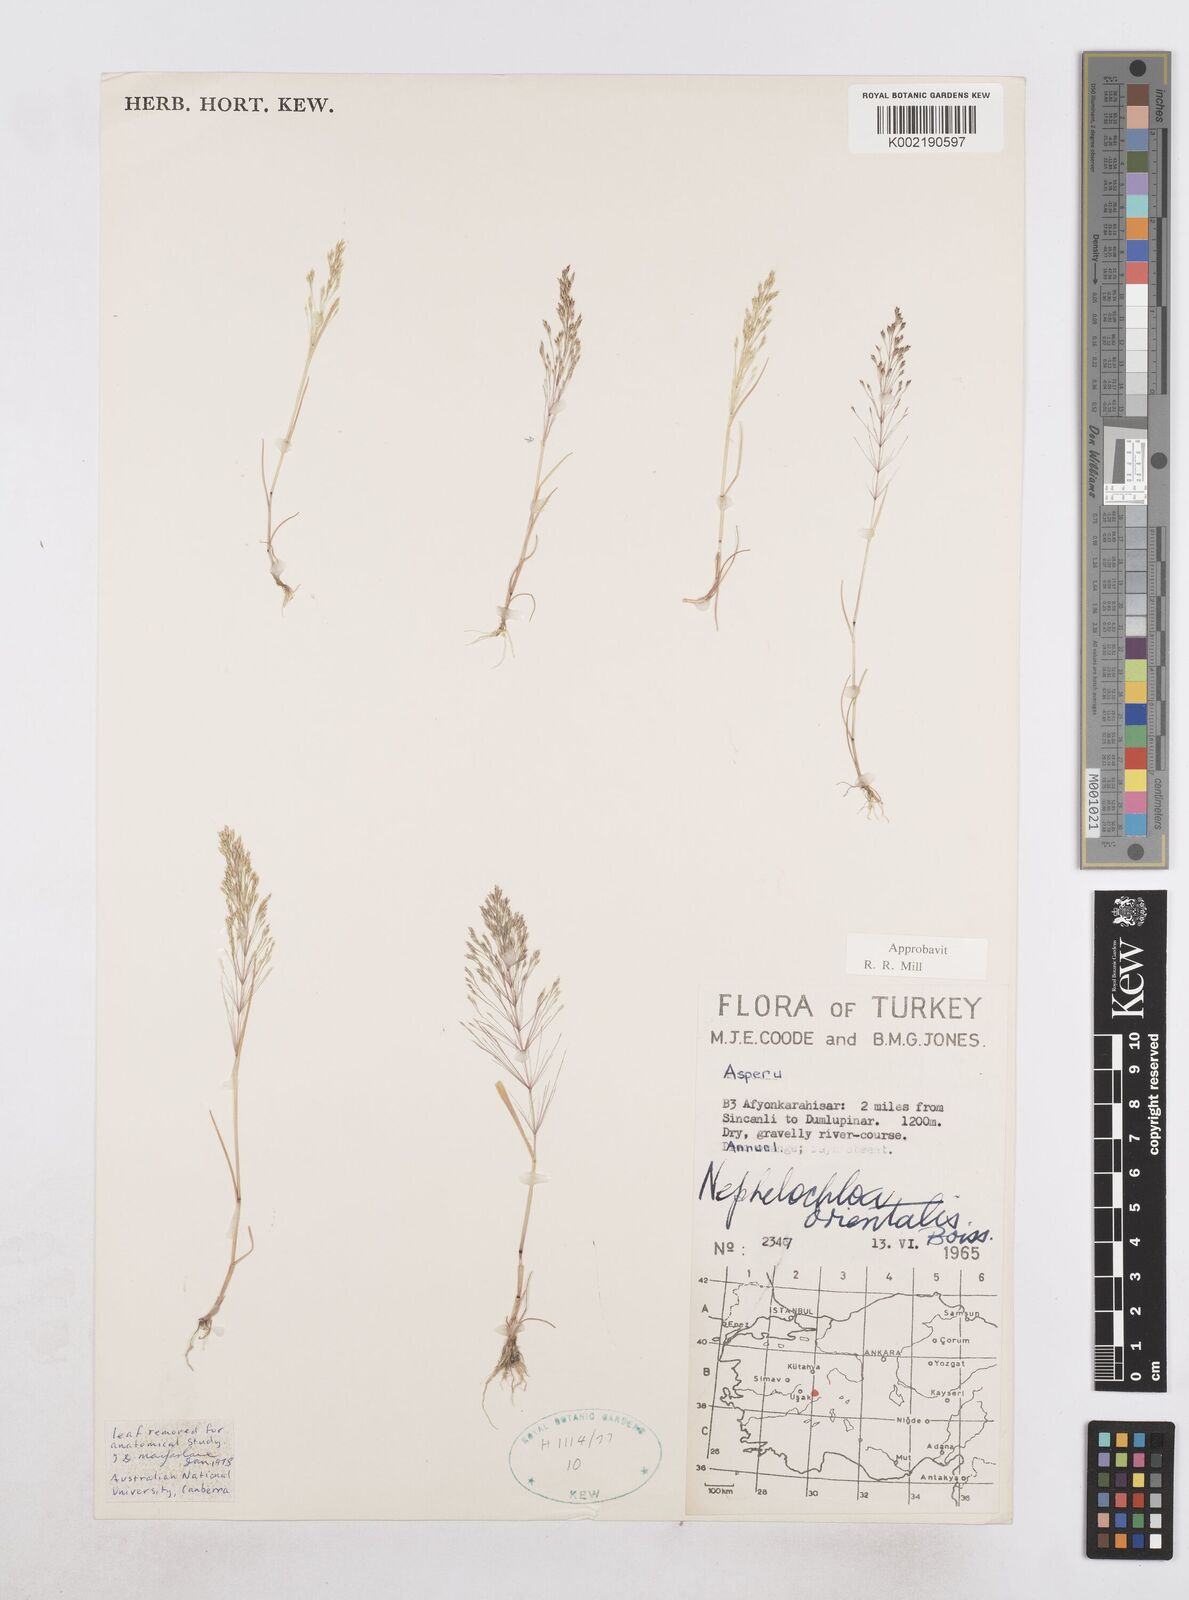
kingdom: Plantae
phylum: Tracheophyta
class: Liliopsida
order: Poales
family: Poaceae
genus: Nephelochloa
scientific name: Nephelochloa orientalis
